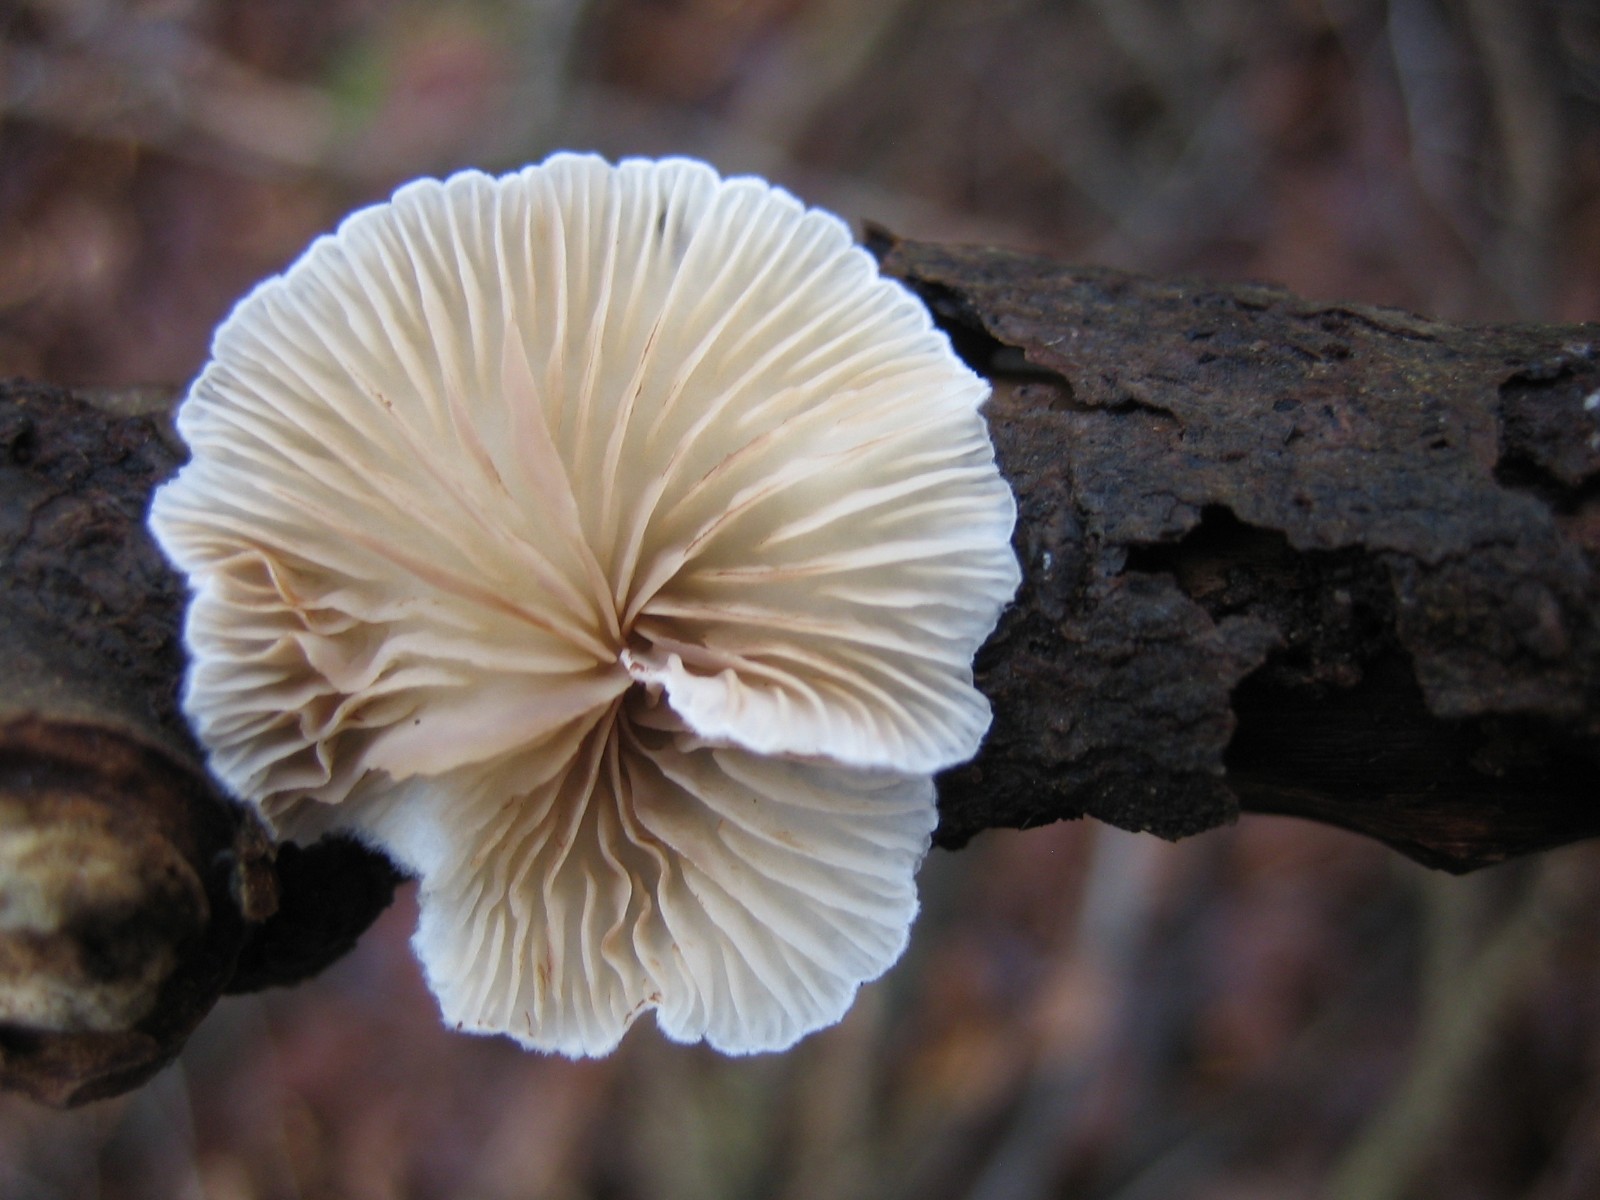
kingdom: Fungi
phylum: Basidiomycota
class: Agaricomycetes
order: Agaricales
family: Crepidotaceae
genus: Crepidotus
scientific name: Crepidotus
